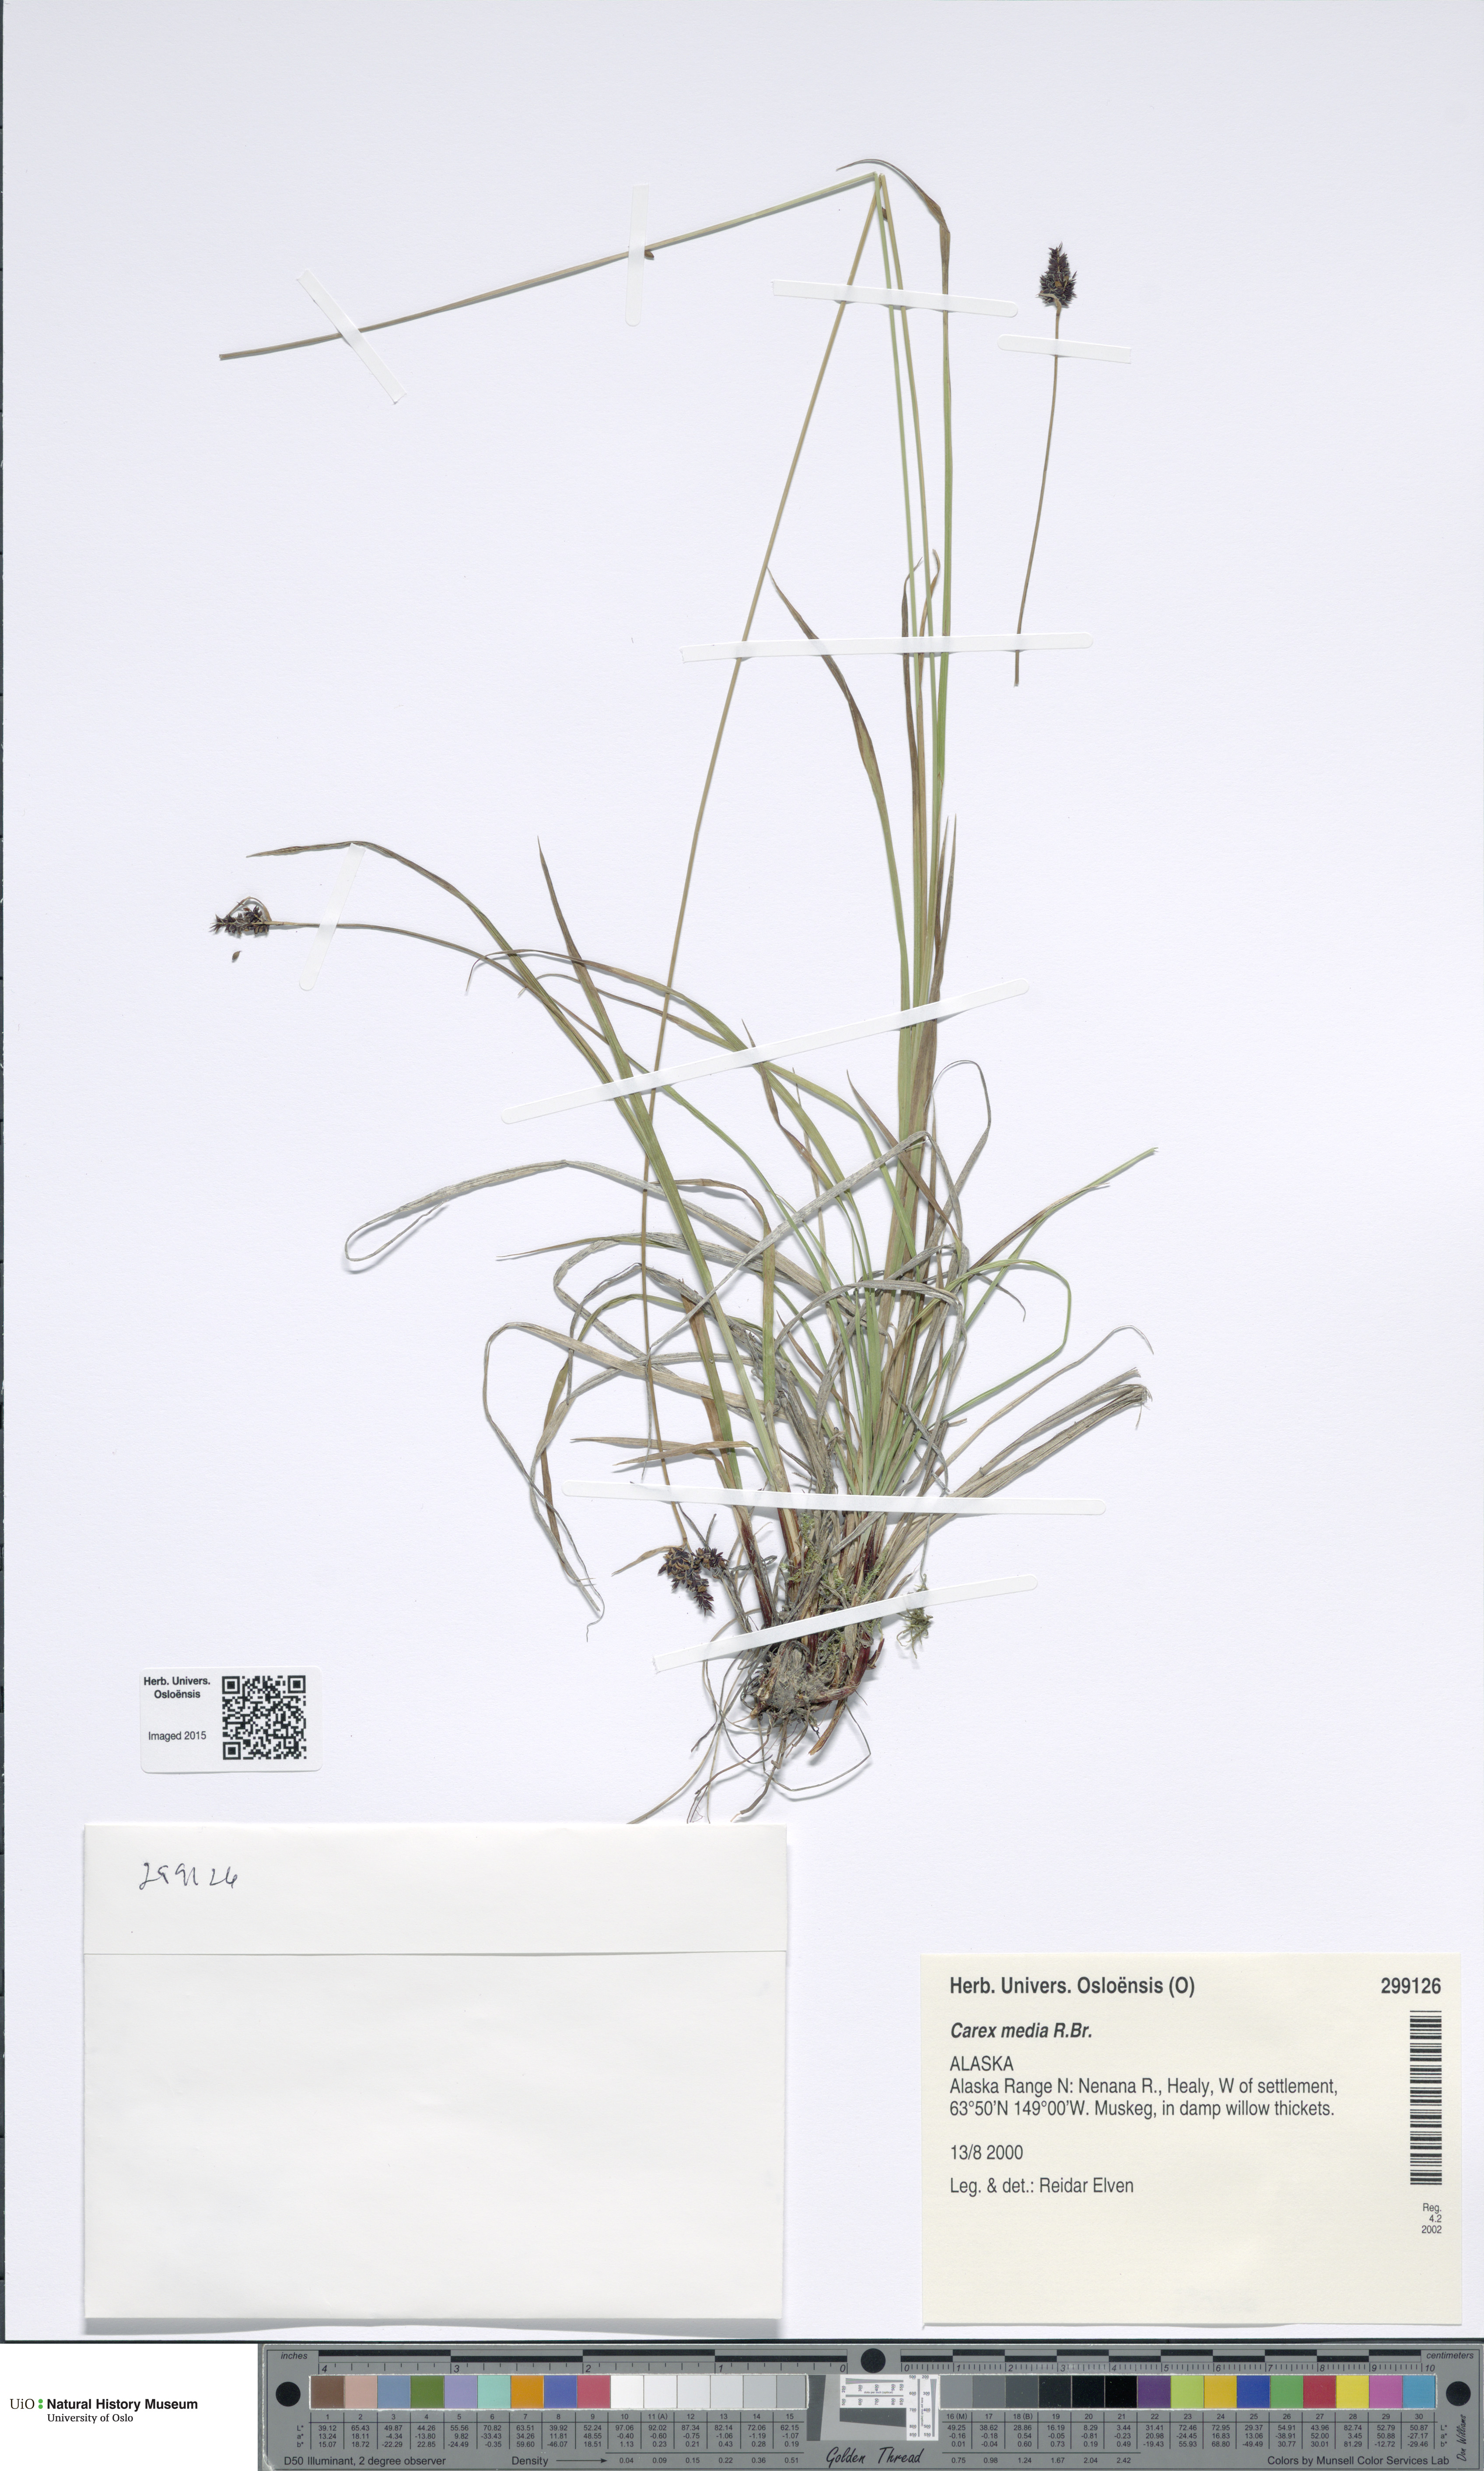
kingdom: Plantae
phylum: Tracheophyta
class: Liliopsida
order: Poales
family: Cyperaceae
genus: Carex
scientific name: Carex media
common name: Alpine sedge
